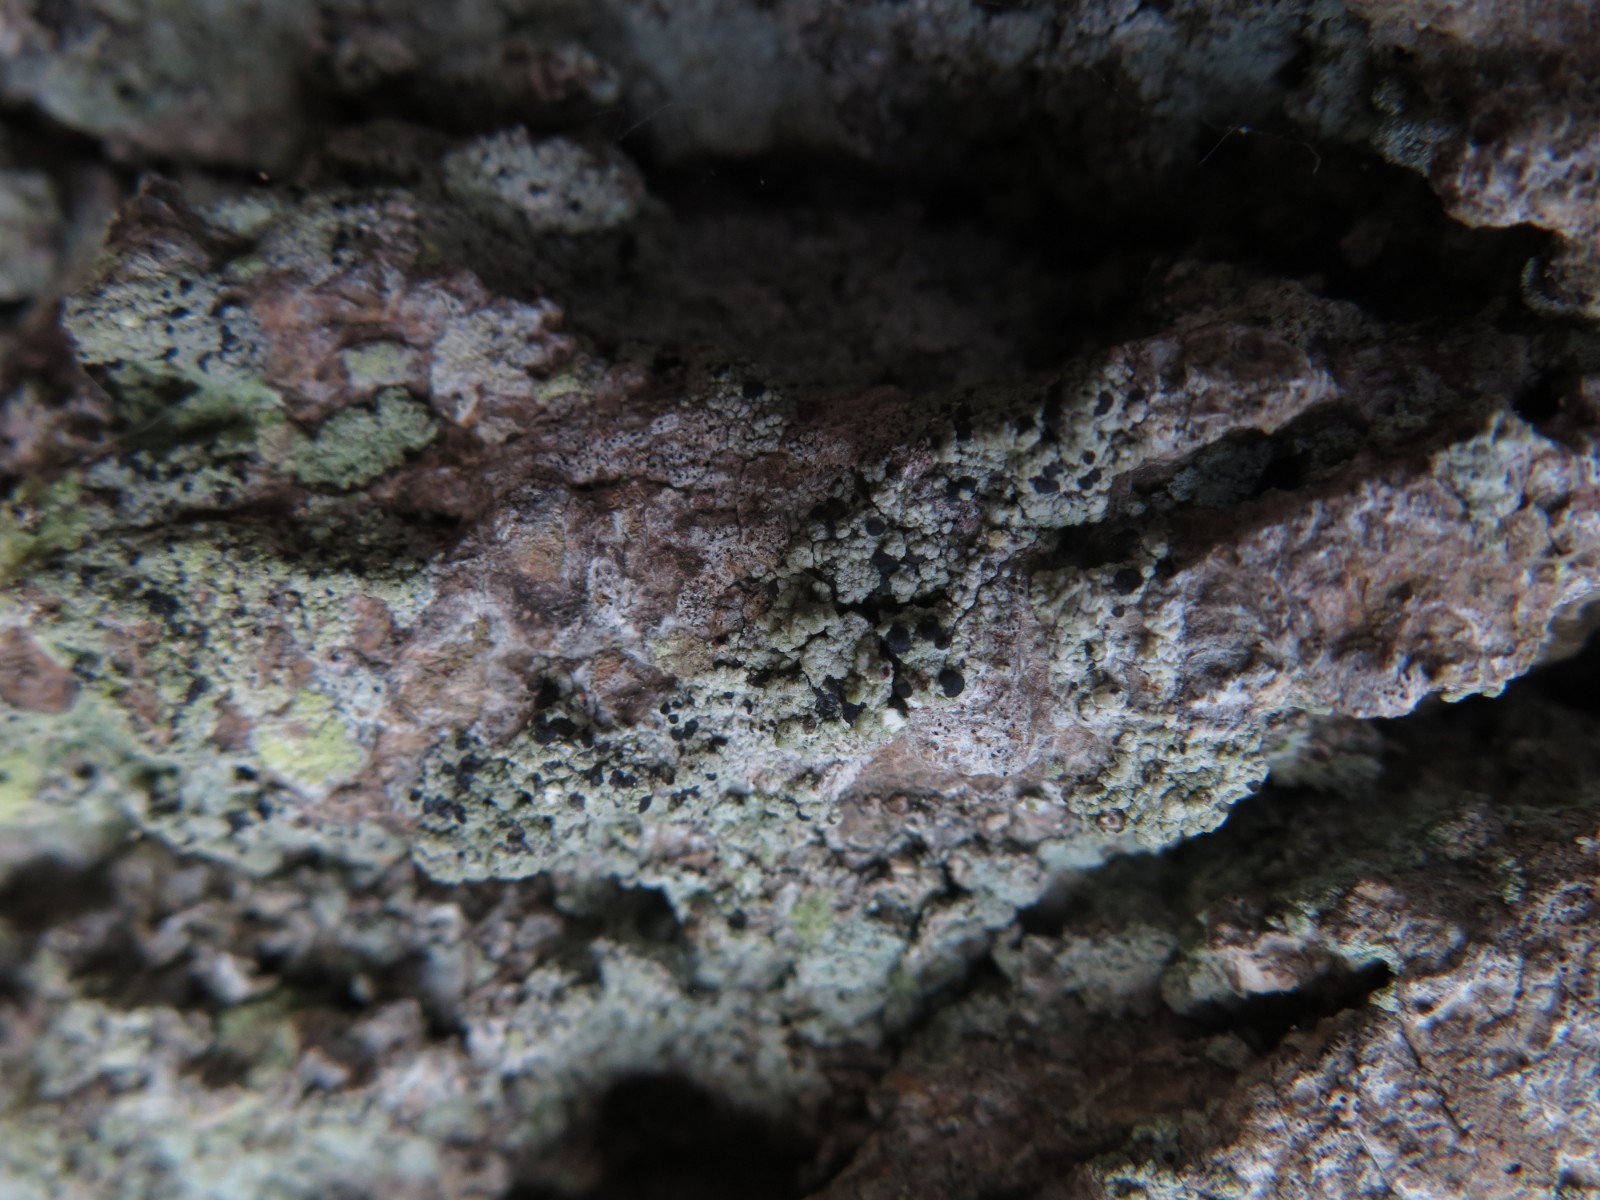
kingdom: Fungi
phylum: Ascomycota
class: Lecanoromycetes
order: Lecanorales
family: Ramalinaceae
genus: Cliostomum
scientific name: Cliostomum griffithii
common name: trefarvet tensporelav
